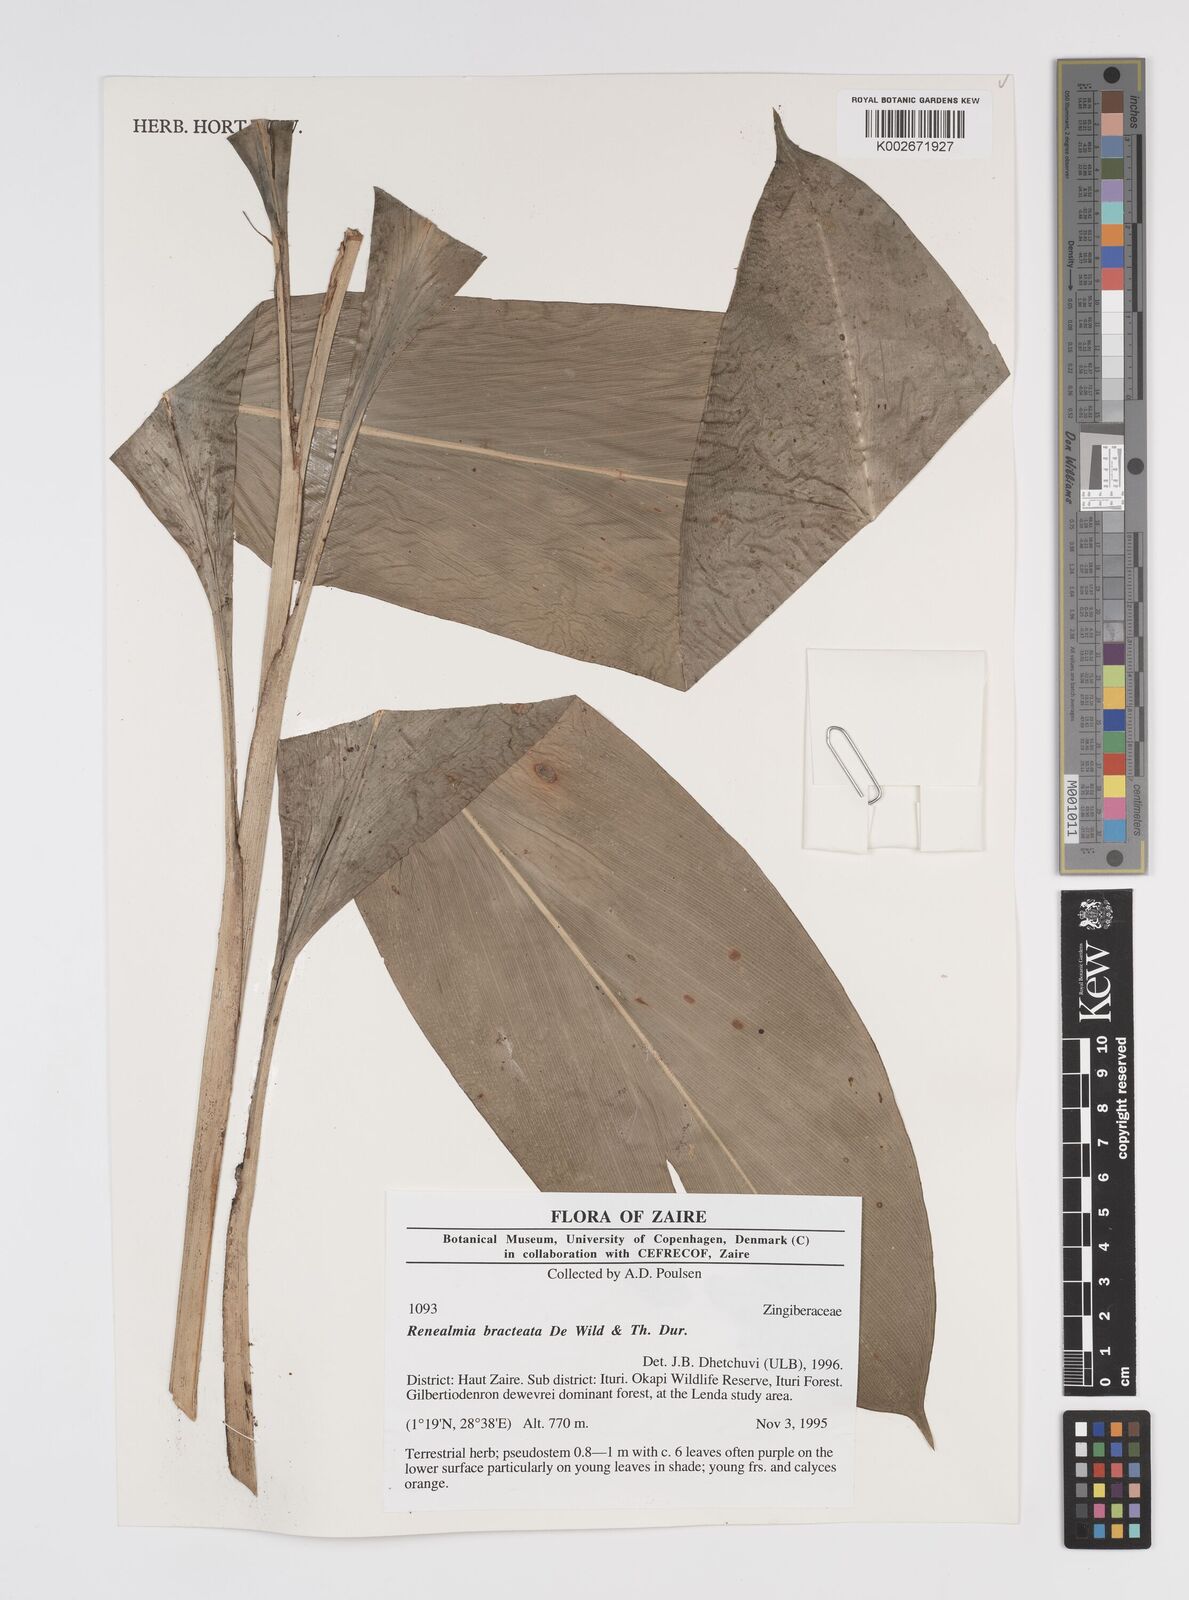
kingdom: Plantae
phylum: Tracheophyta
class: Liliopsida
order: Zingiberales
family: Zingiberaceae
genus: Renealmia
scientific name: Renealmia bracteata
